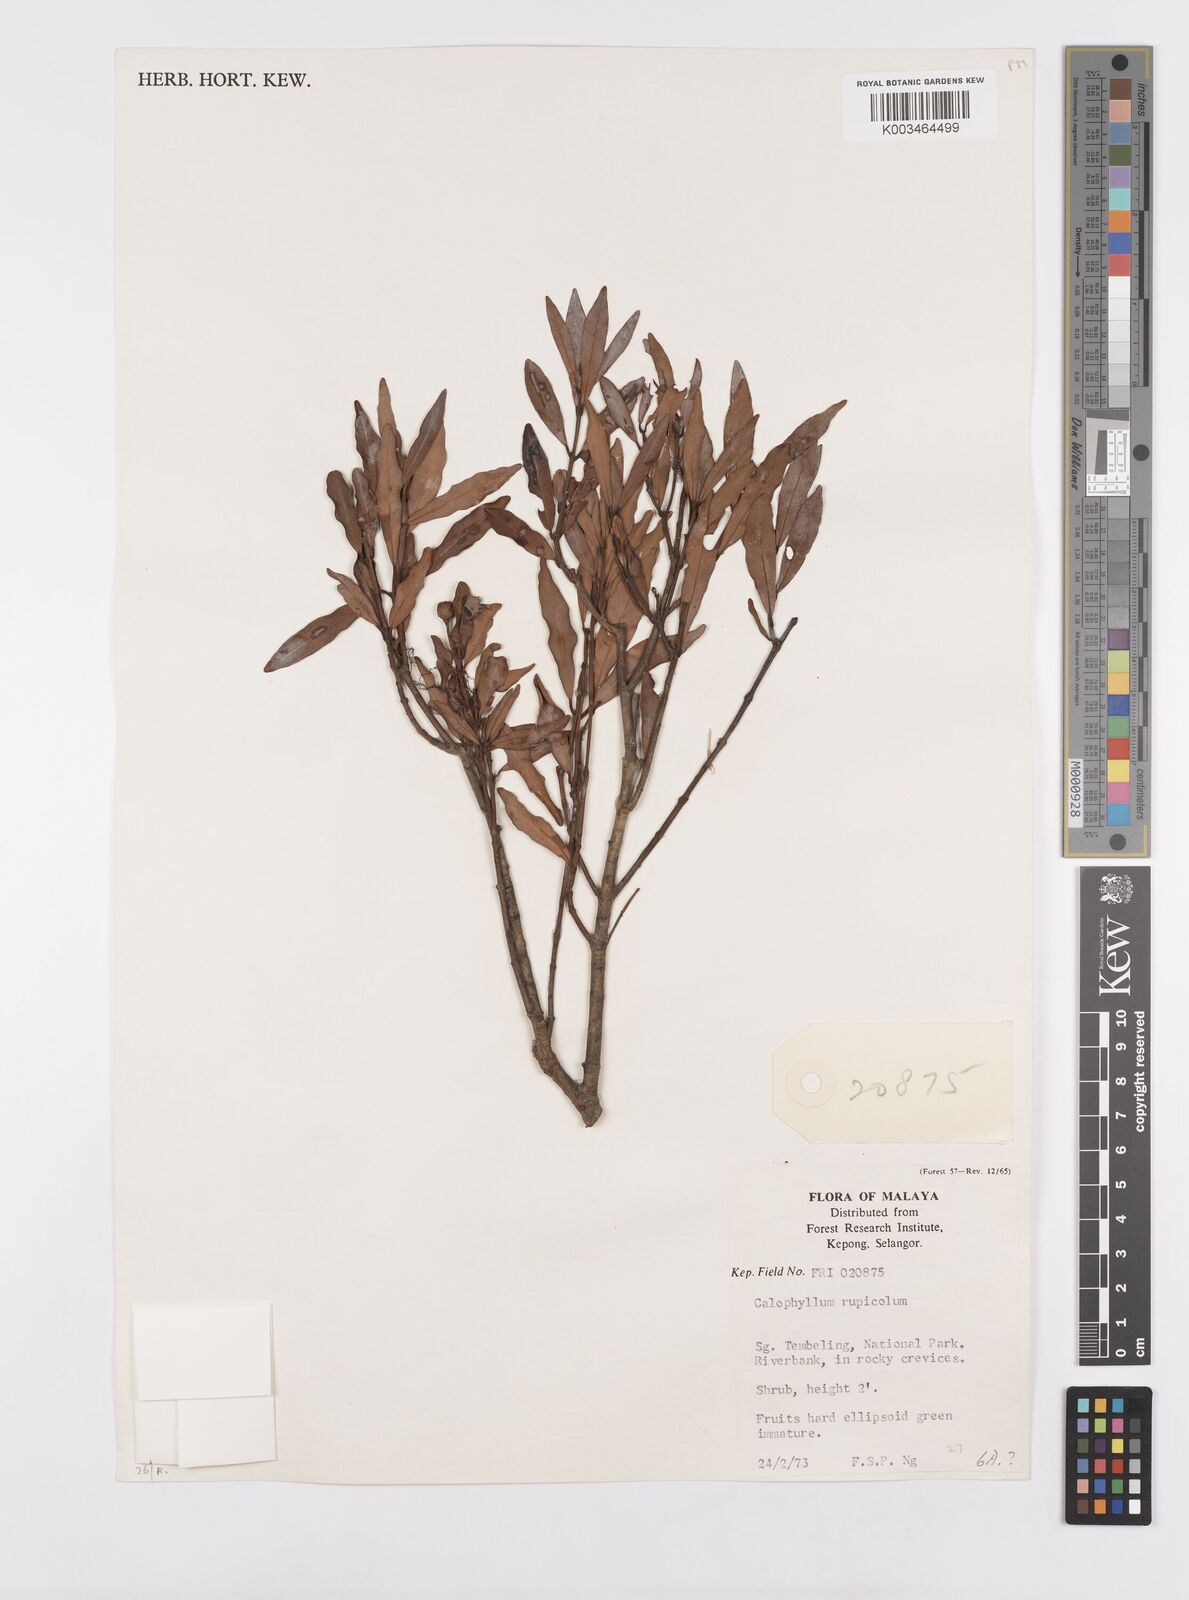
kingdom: Plantae
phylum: Tracheophyta
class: Magnoliopsida
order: Malpighiales
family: Calophyllaceae
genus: Calophyllum
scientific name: Calophyllum rupicola
